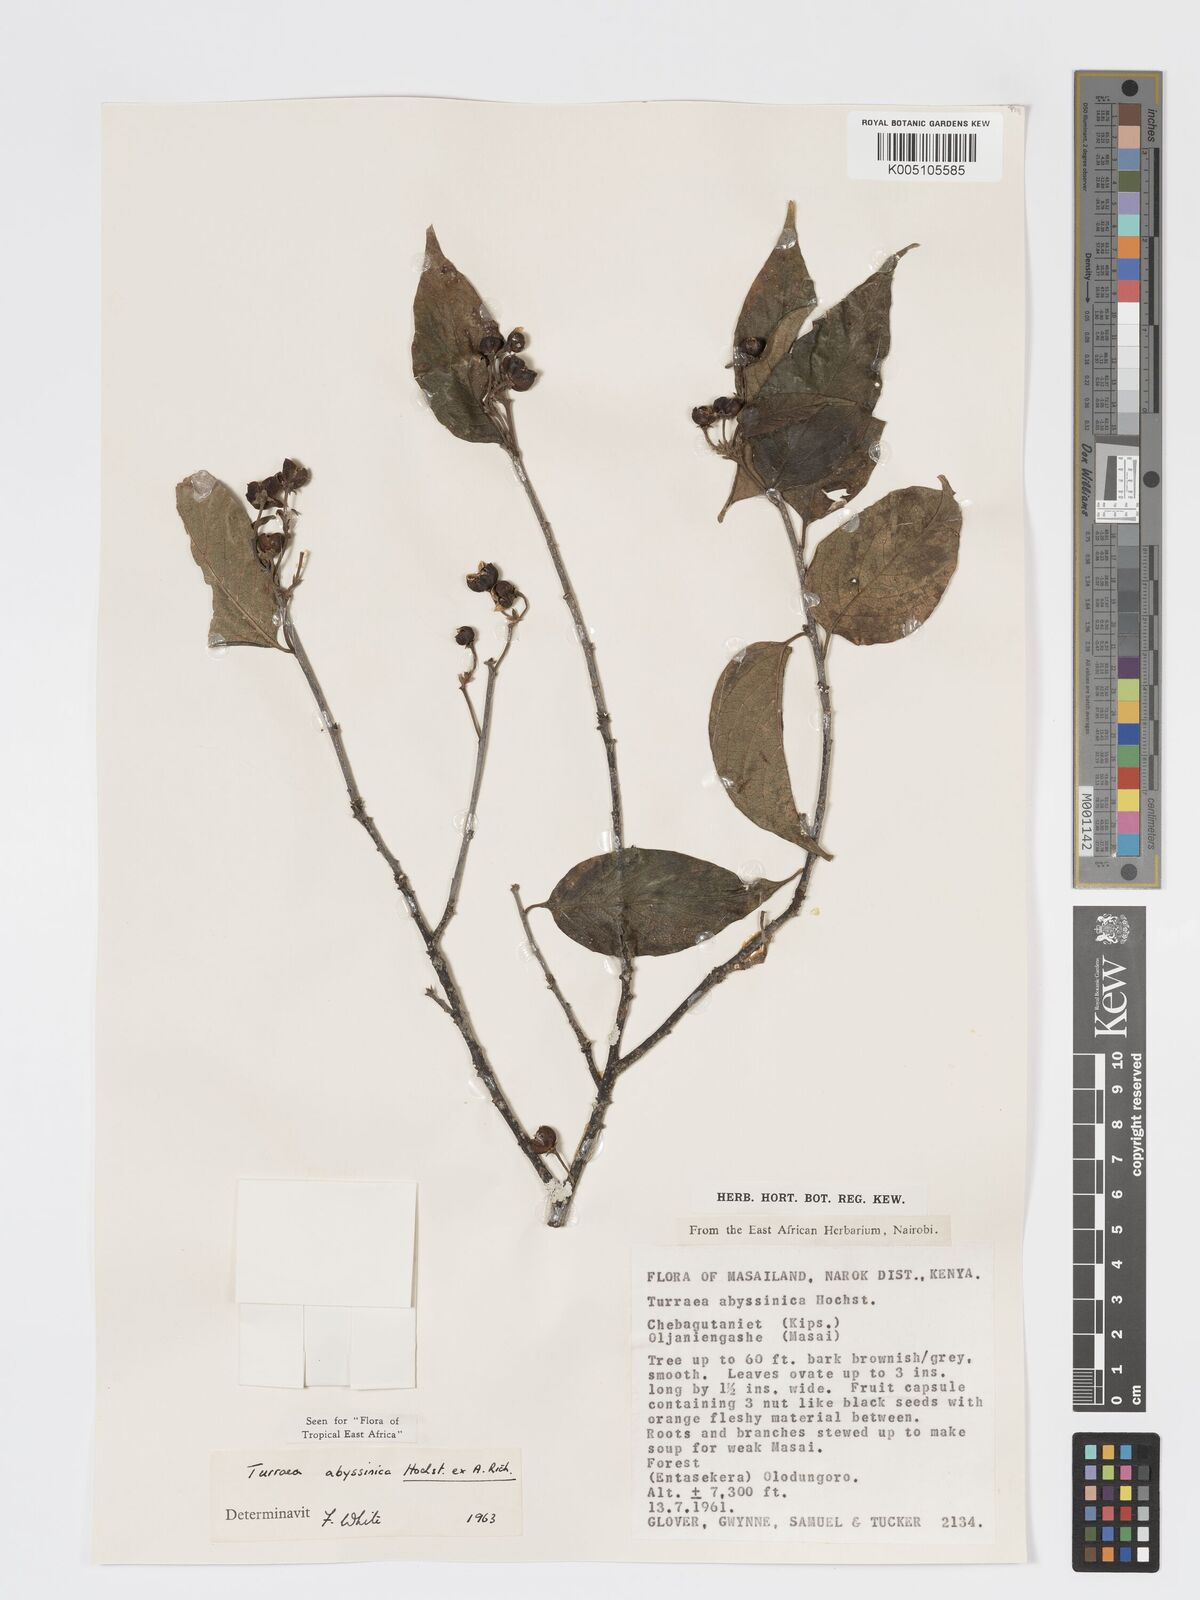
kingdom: Plantae
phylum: Tracheophyta
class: Magnoliopsida
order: Sapindales
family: Meliaceae
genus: Turraea
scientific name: Turraea abyssinica
